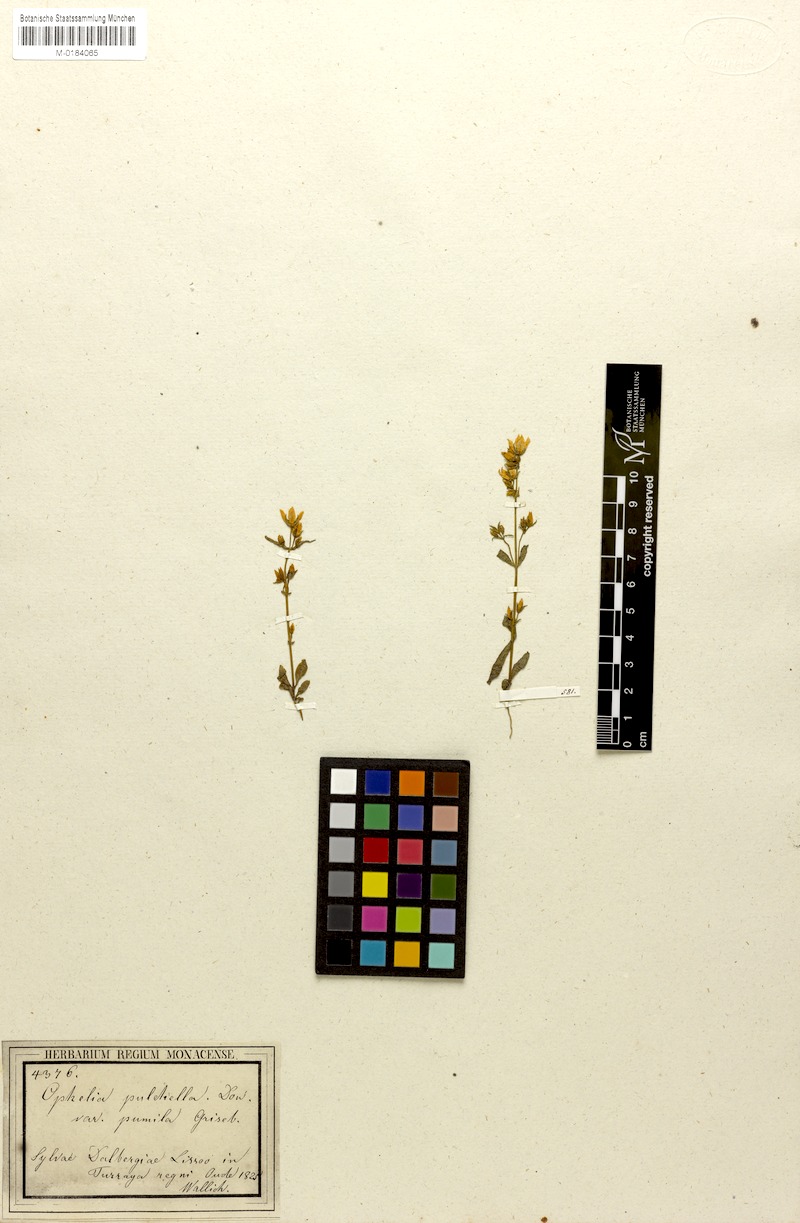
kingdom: Plantae
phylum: Tracheophyta
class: Magnoliopsida
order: Gentianales
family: Gentianaceae
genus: Swertia
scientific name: Swertia angustifolia
